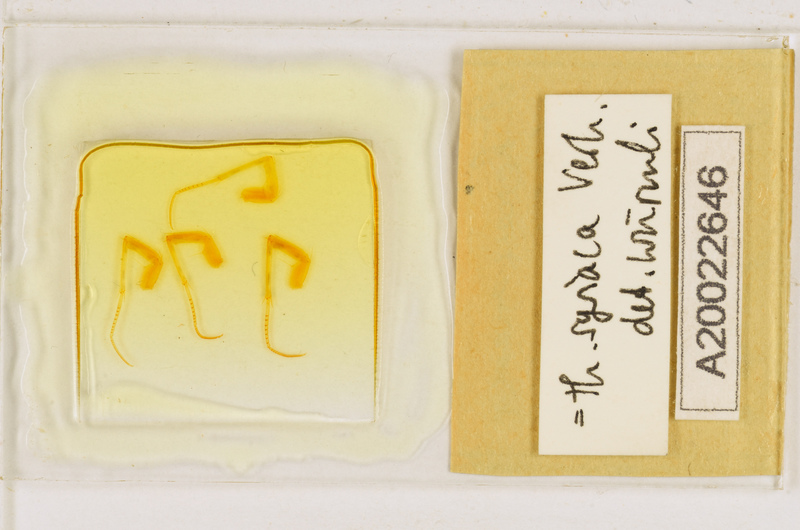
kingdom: Animalia
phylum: Arthropoda
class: Chilopoda
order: Scutigeromorpha
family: Scutigeridae
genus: Thereuonema
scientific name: Thereuonema microstoma
